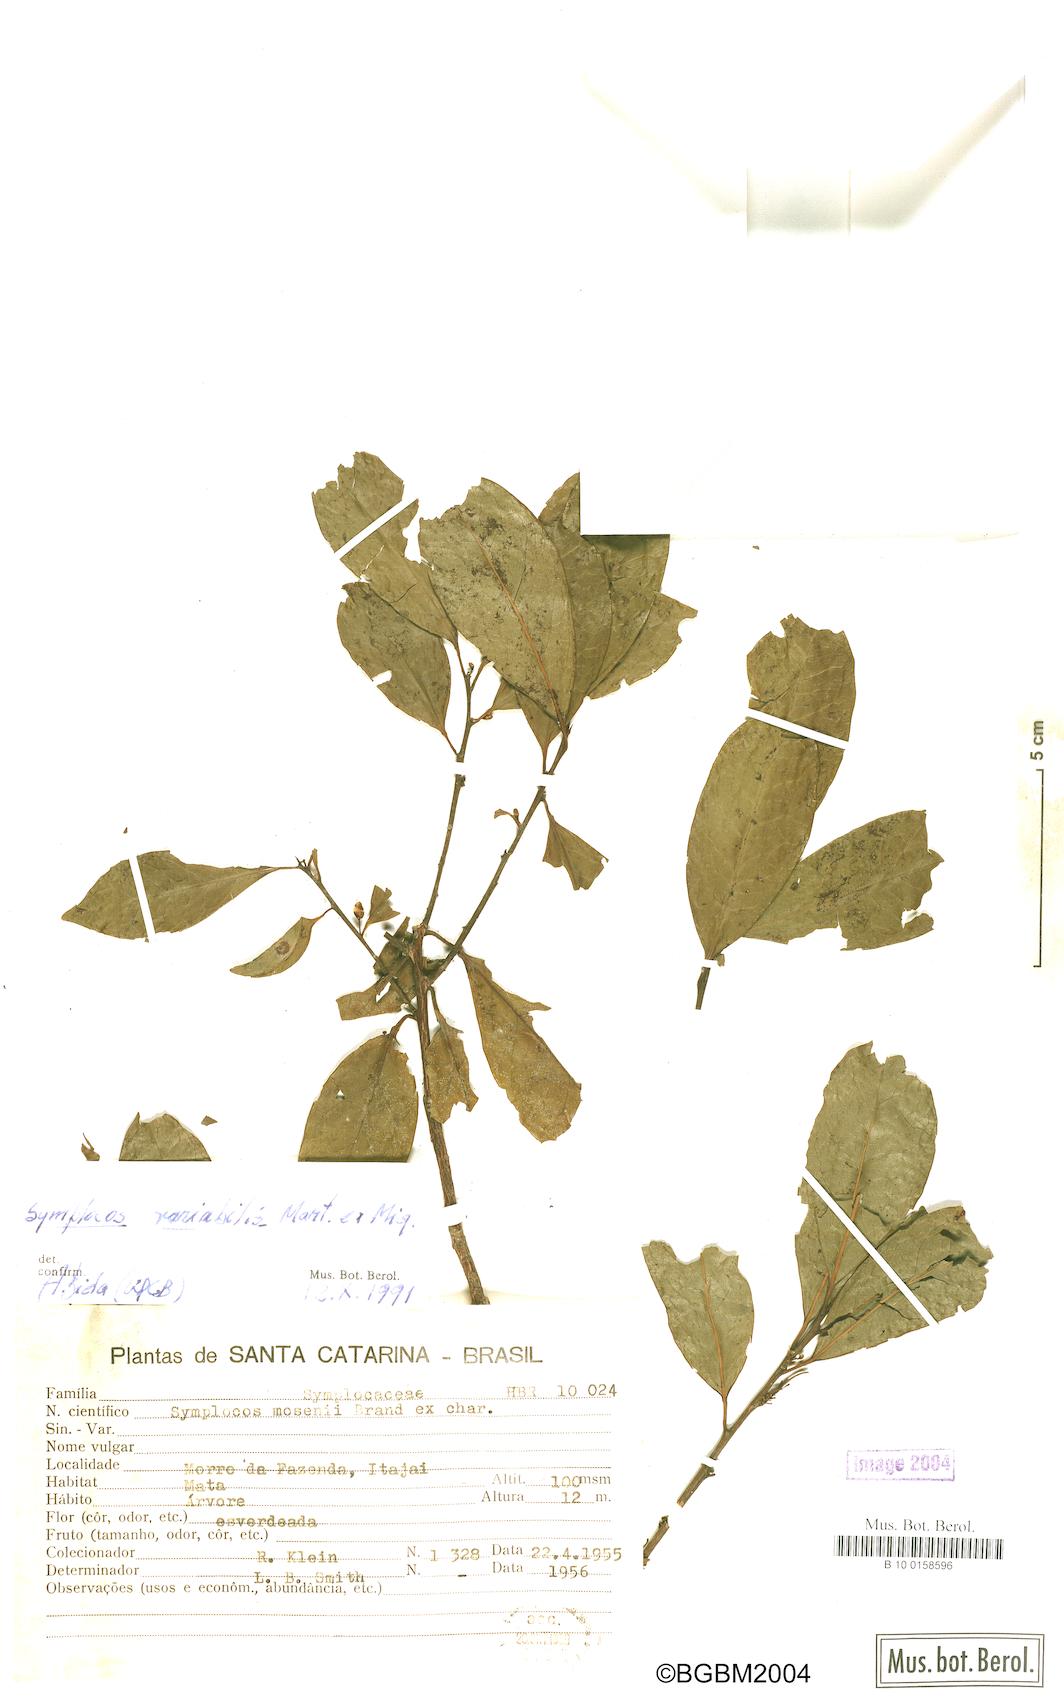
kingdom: Plantae
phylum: Tracheophyta
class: Magnoliopsida
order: Ericales
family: Symplocaceae
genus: Symplocos
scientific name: Symplocos estrellensis
